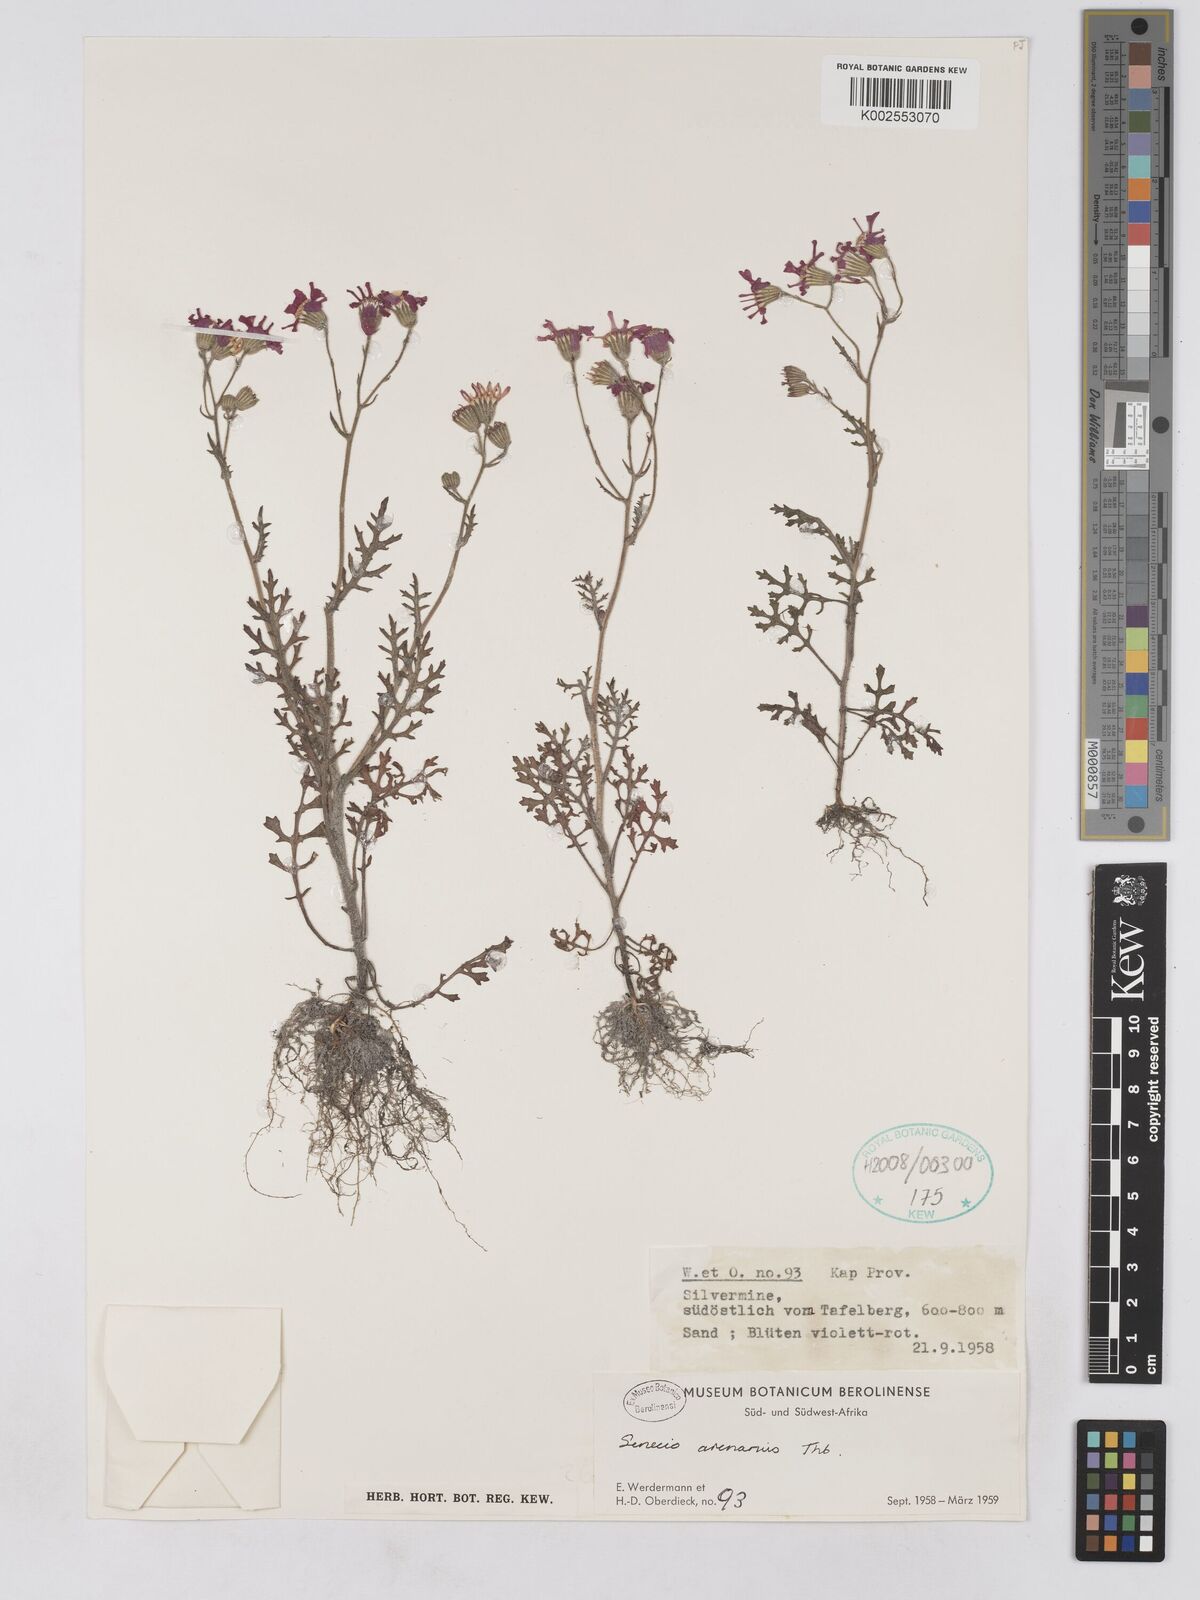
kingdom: Plantae
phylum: Tracheophyta
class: Magnoliopsida
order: Asterales
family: Asteraceae
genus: Senecio
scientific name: Senecio arenarius
